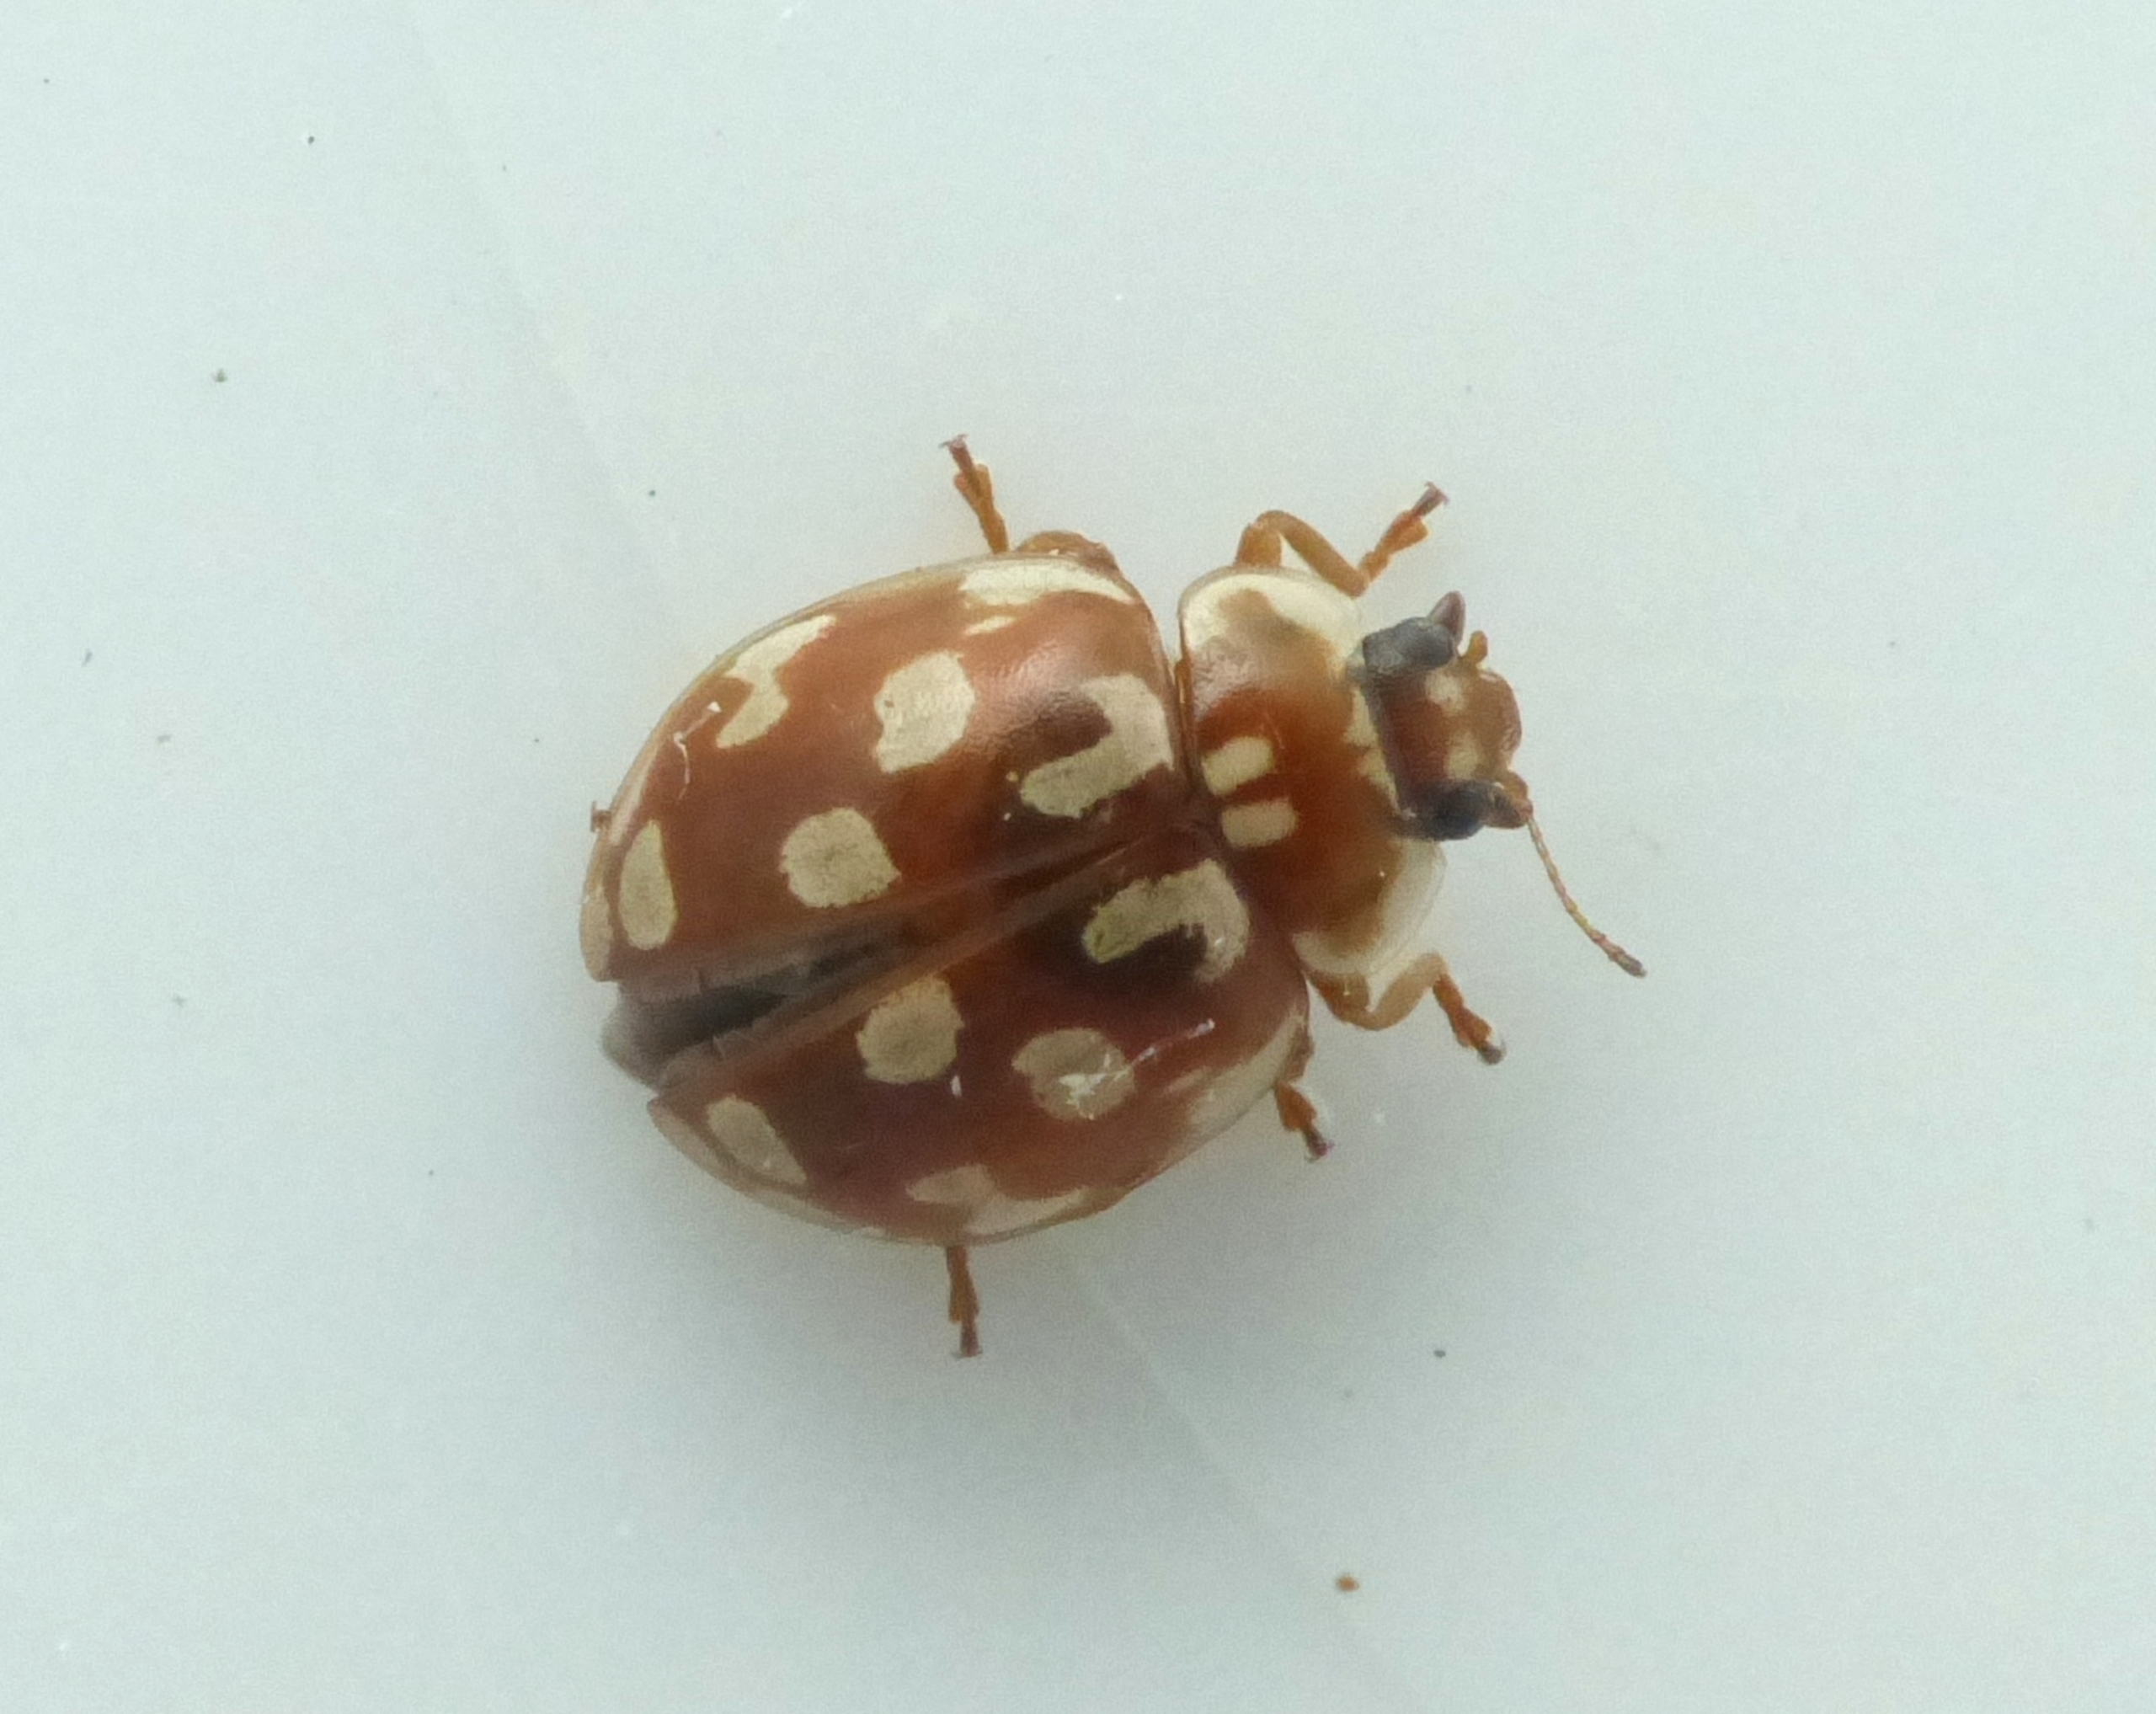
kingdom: Animalia
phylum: Arthropoda
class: Insecta
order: Coleoptera
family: Coccinellidae
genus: Myrrha
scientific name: Myrrha octodecimguttata
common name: Attenplettet mariehøne
